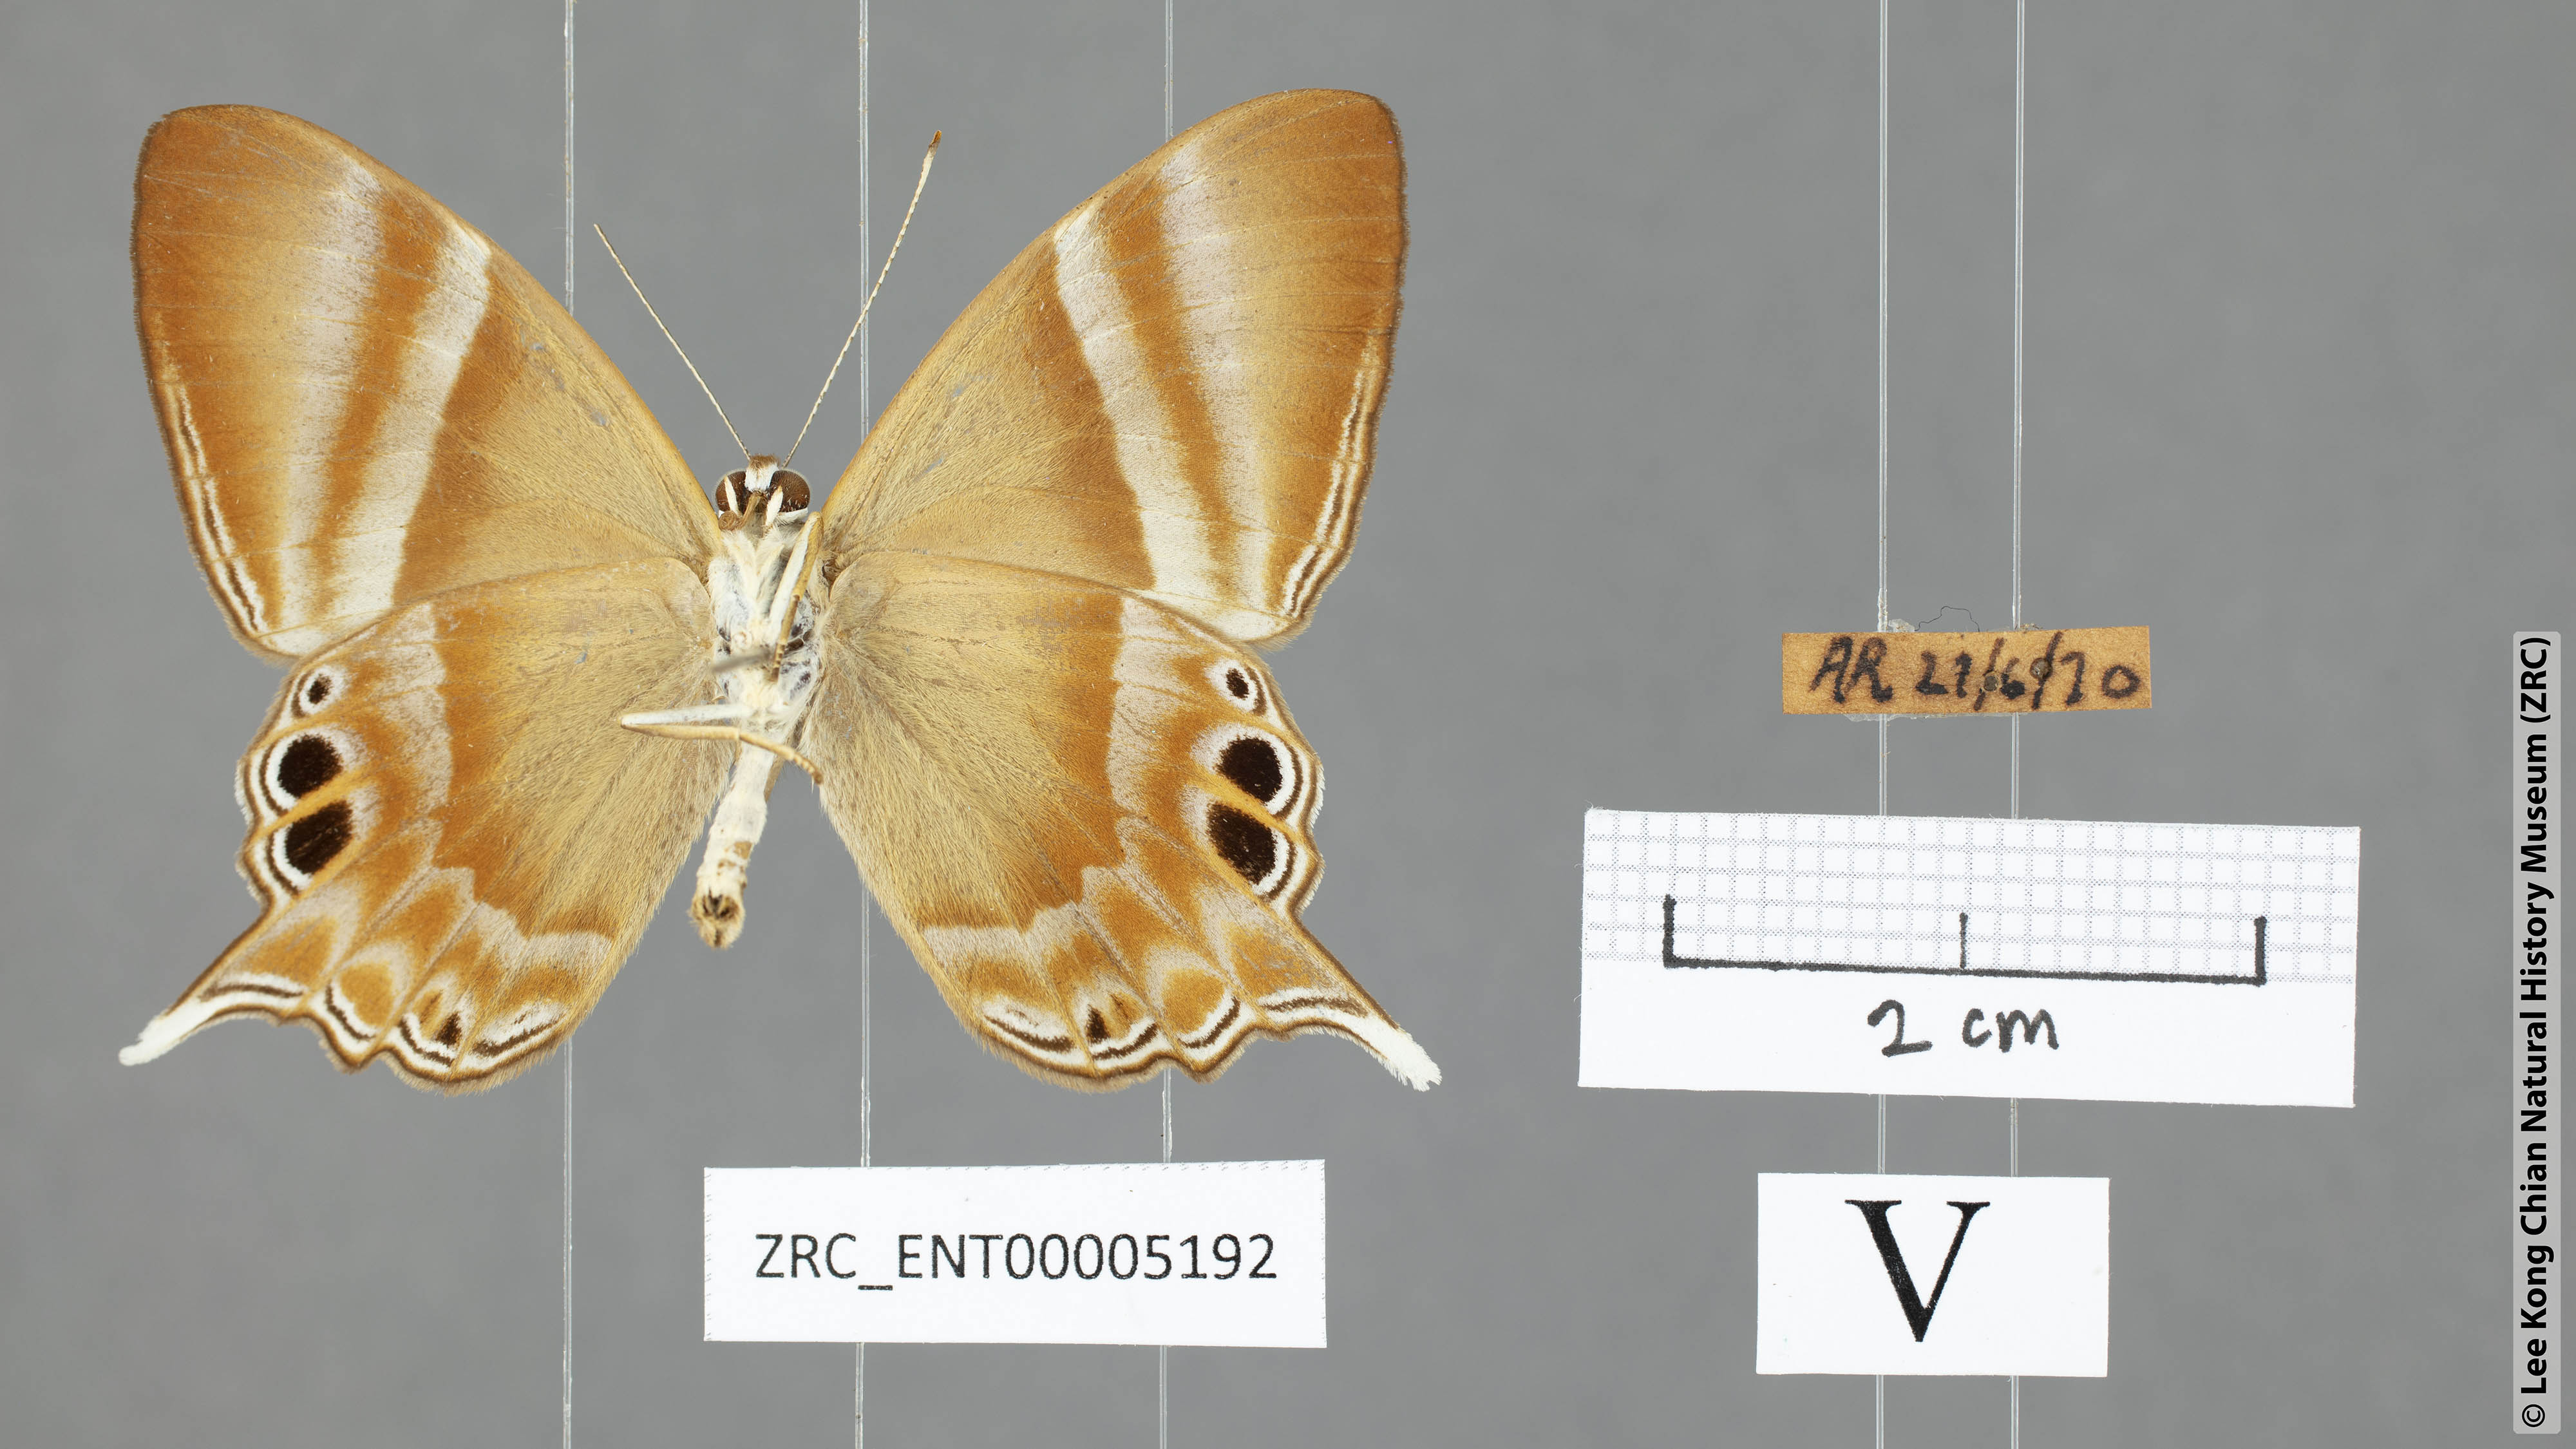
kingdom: Animalia
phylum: Arthropoda
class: Insecta
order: Lepidoptera
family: Riodinidae
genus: Archigenes
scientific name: Archigenes savitri
